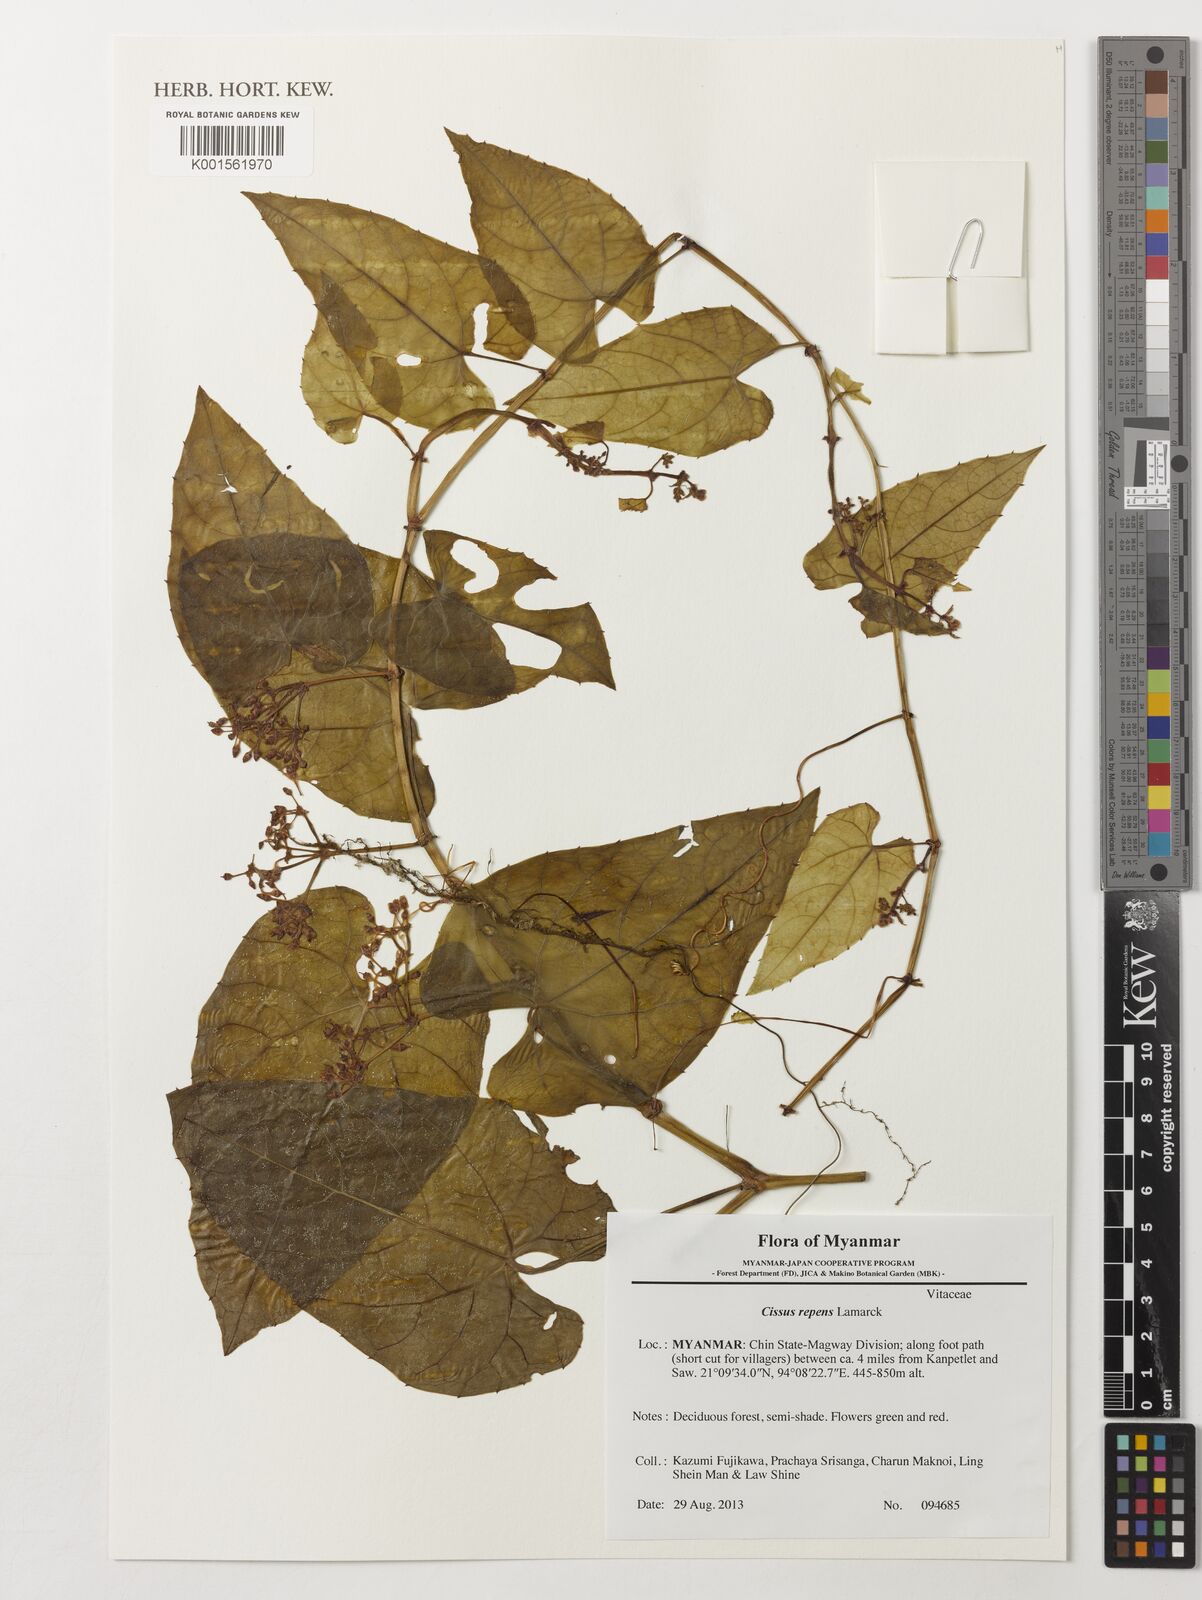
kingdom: Plantae
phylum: Tracheophyta
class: Magnoliopsida
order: Vitales
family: Vitaceae
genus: Cissus
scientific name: Cissus repens
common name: Cissus
